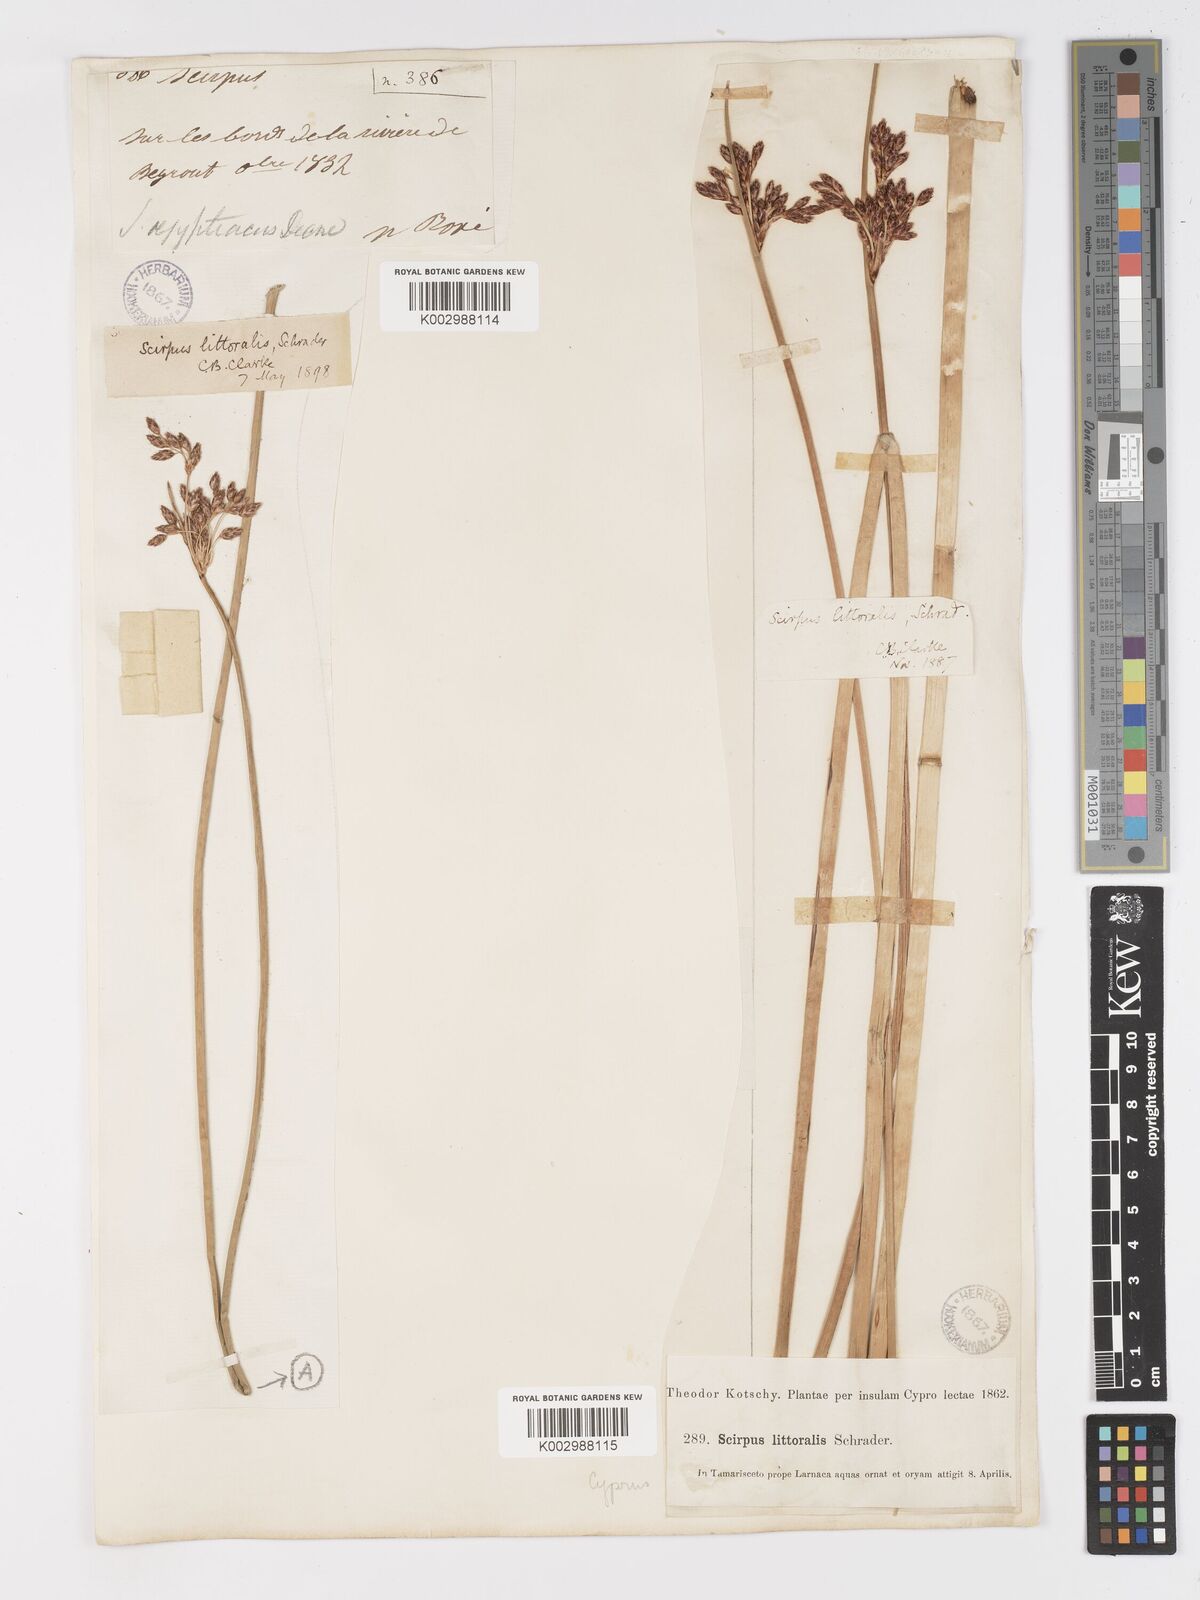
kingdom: Plantae
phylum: Tracheophyta
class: Liliopsida
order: Poales
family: Cyperaceae
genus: Schoenoplectus
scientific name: Schoenoplectus litoralis
